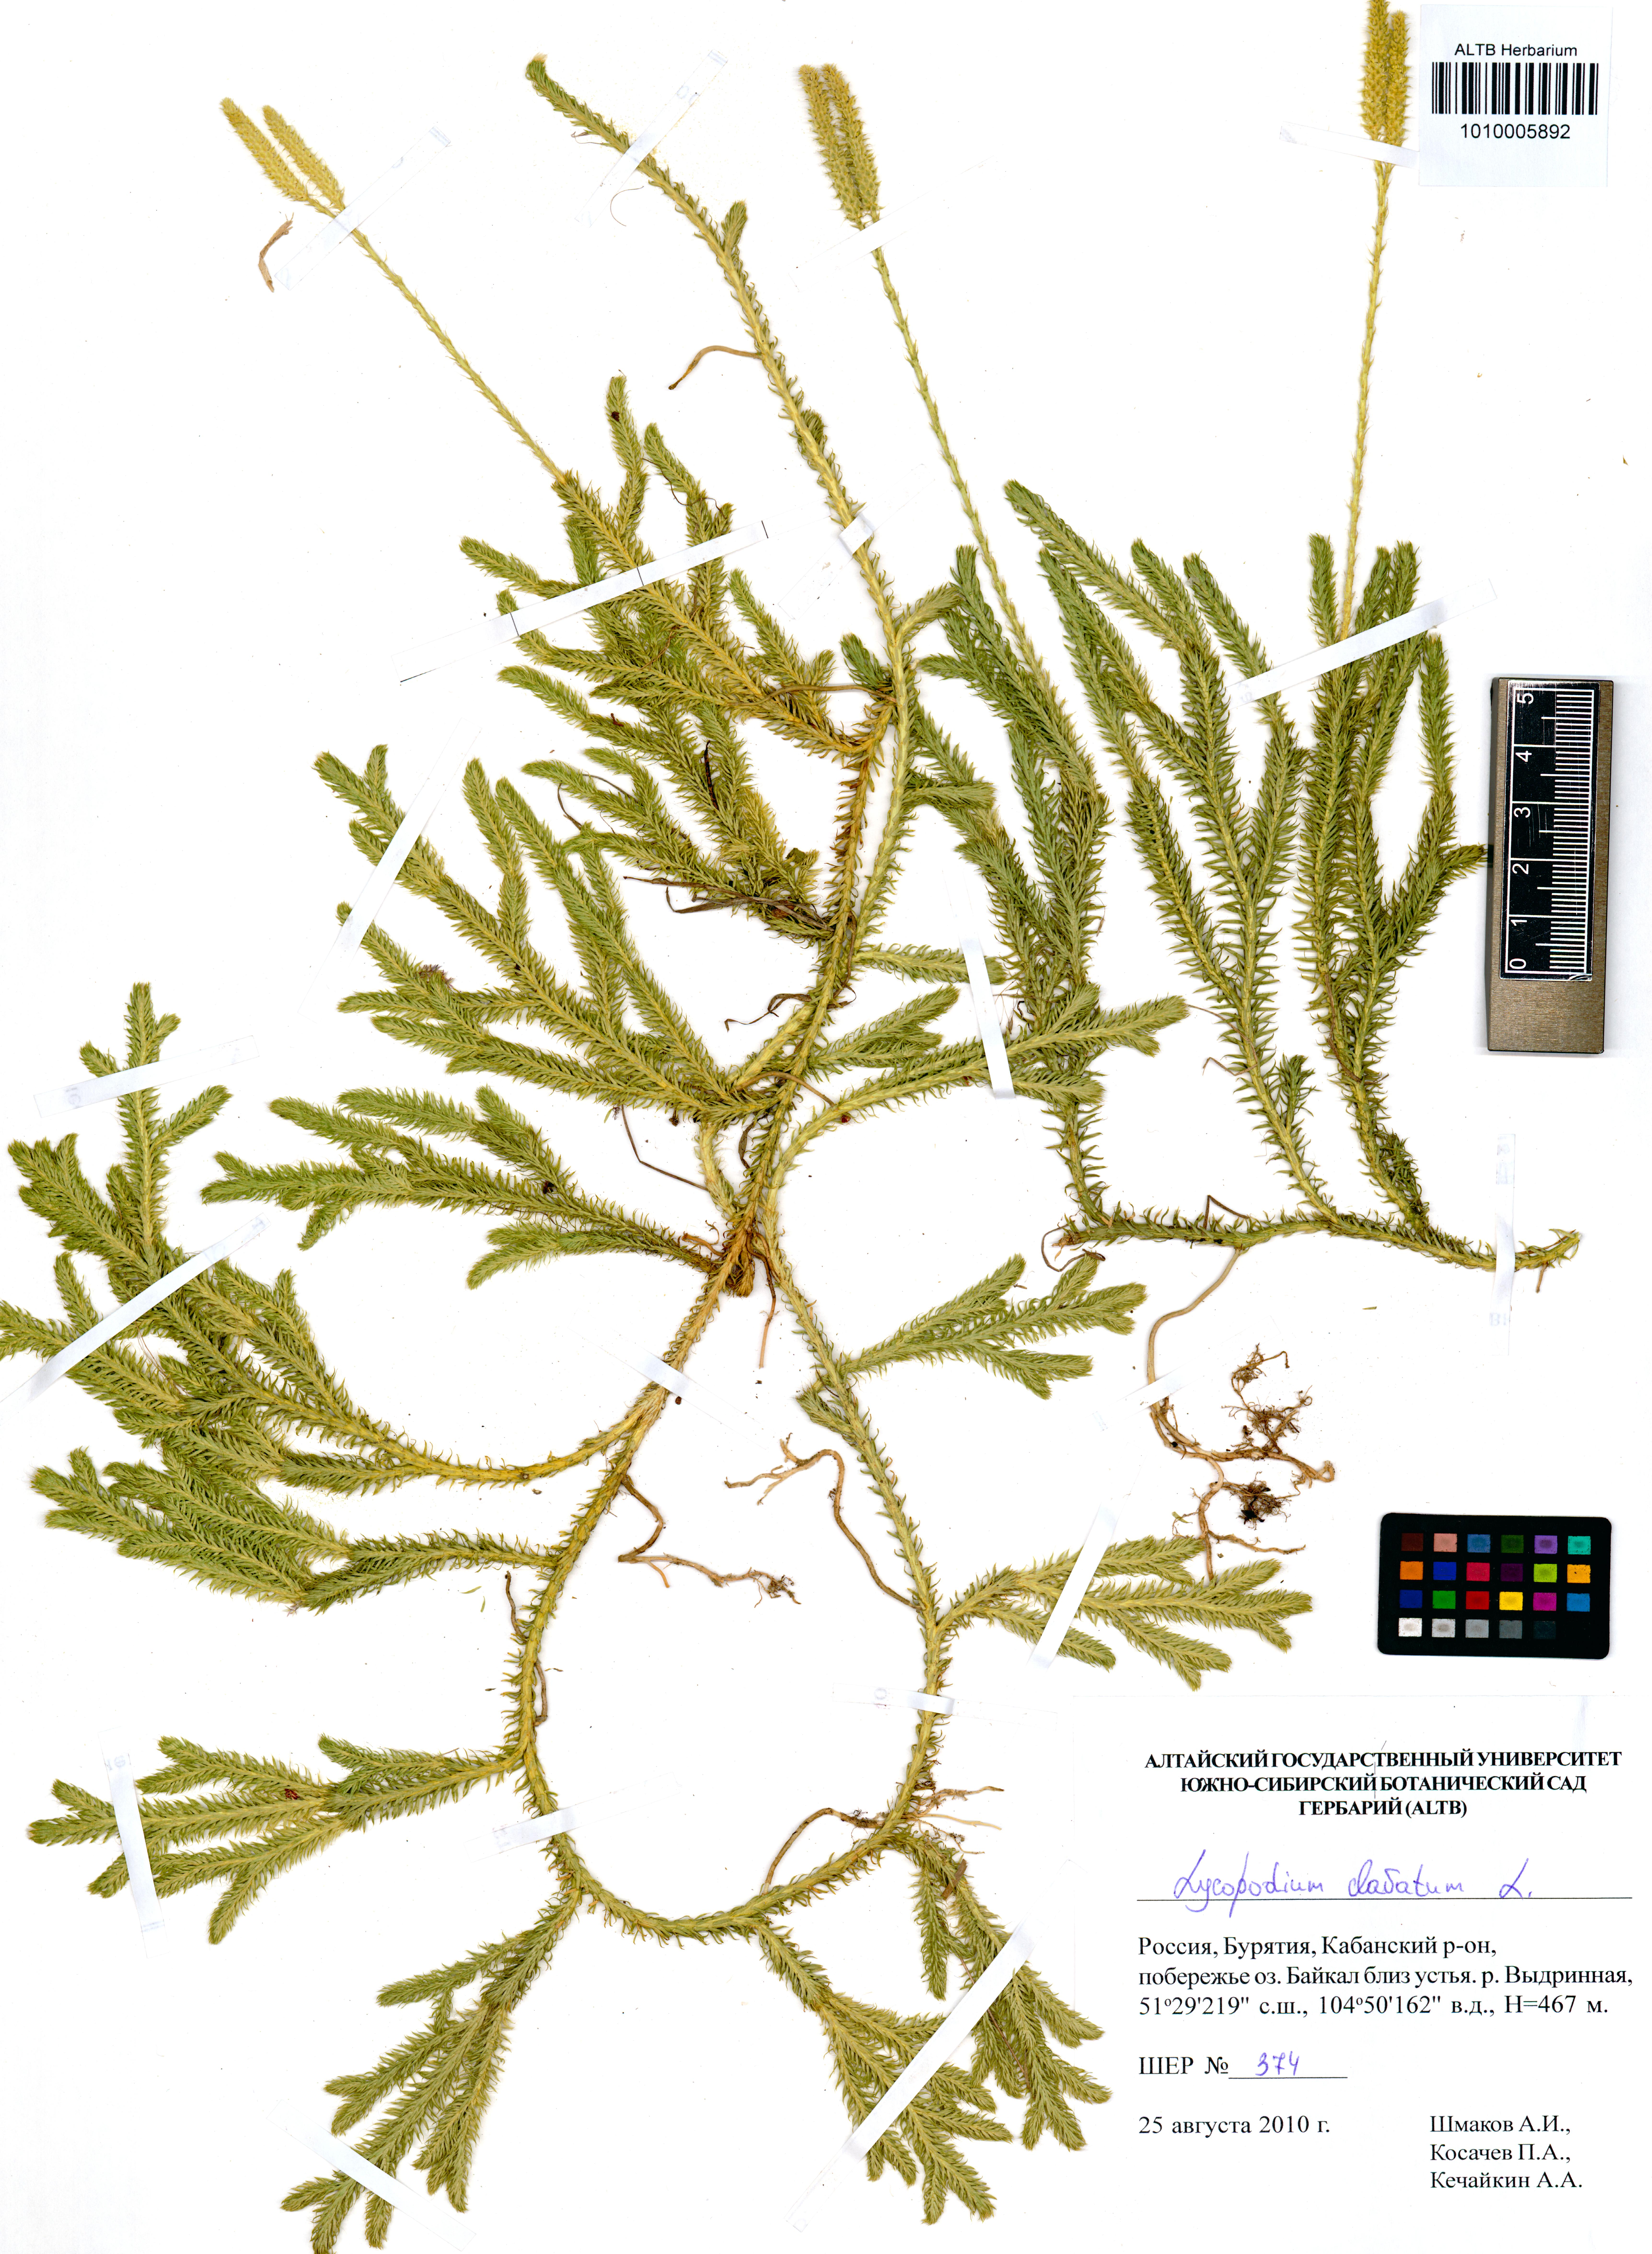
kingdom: Plantae
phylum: Tracheophyta
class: Lycopodiopsida
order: Lycopodiales
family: Lycopodiaceae
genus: Lycopodium
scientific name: Lycopodium clavatum
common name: Stag's-horn clubmoss
